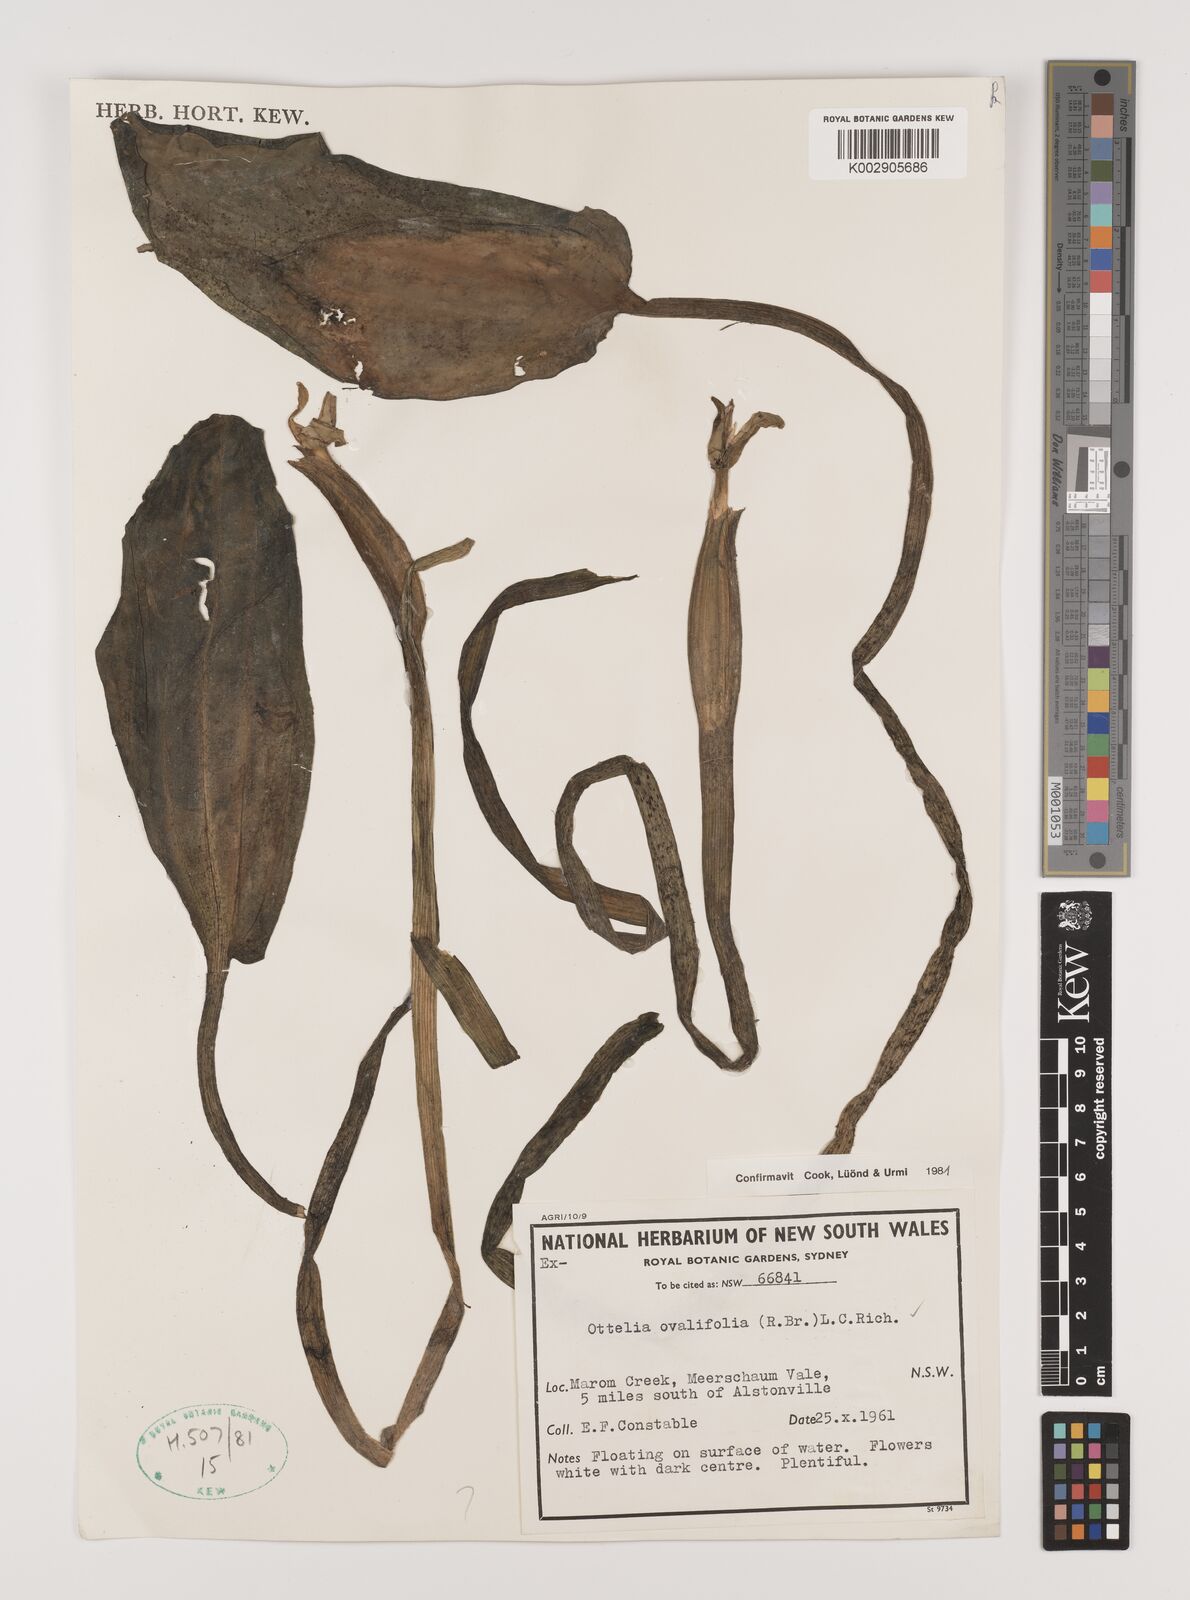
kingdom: Plantae
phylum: Tracheophyta
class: Liliopsida
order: Alismatales
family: Hydrocharitaceae
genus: Ottelia
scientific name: Ottelia ovalifolia
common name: Swamp-lily
